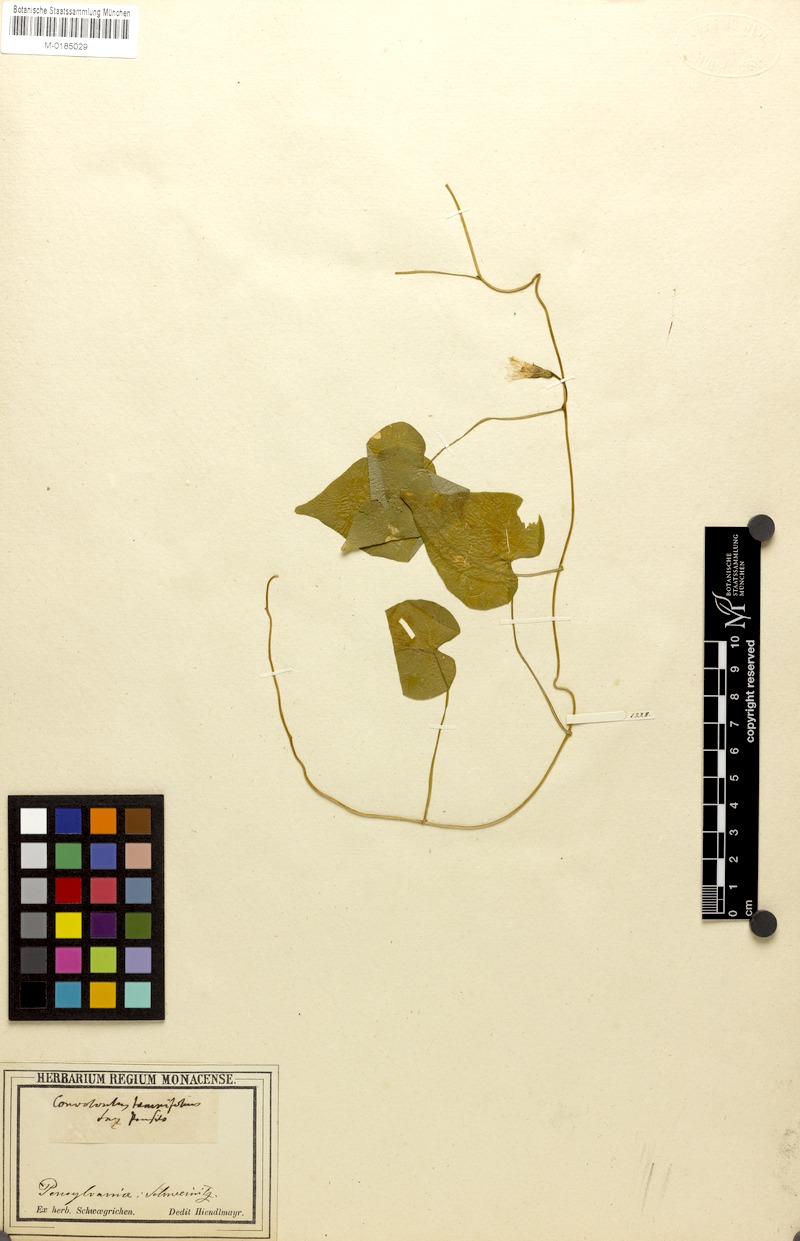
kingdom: Plantae
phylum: Tracheophyta
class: Magnoliopsida
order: Solanales
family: Convolvulaceae
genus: Ipomoea
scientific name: Ipomoea lacunosa
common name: White morning-glory
